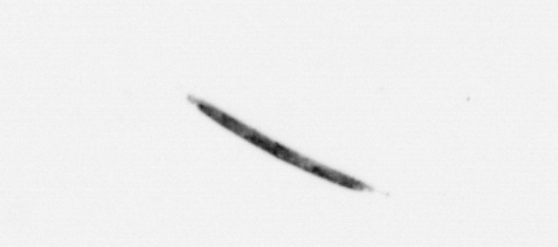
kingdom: Bacteria
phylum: Cyanobacteria
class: Cyanobacteriia
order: Cyanobacteriales
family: Microcoleaceae
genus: Trichodesmium
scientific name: Trichodesmium
